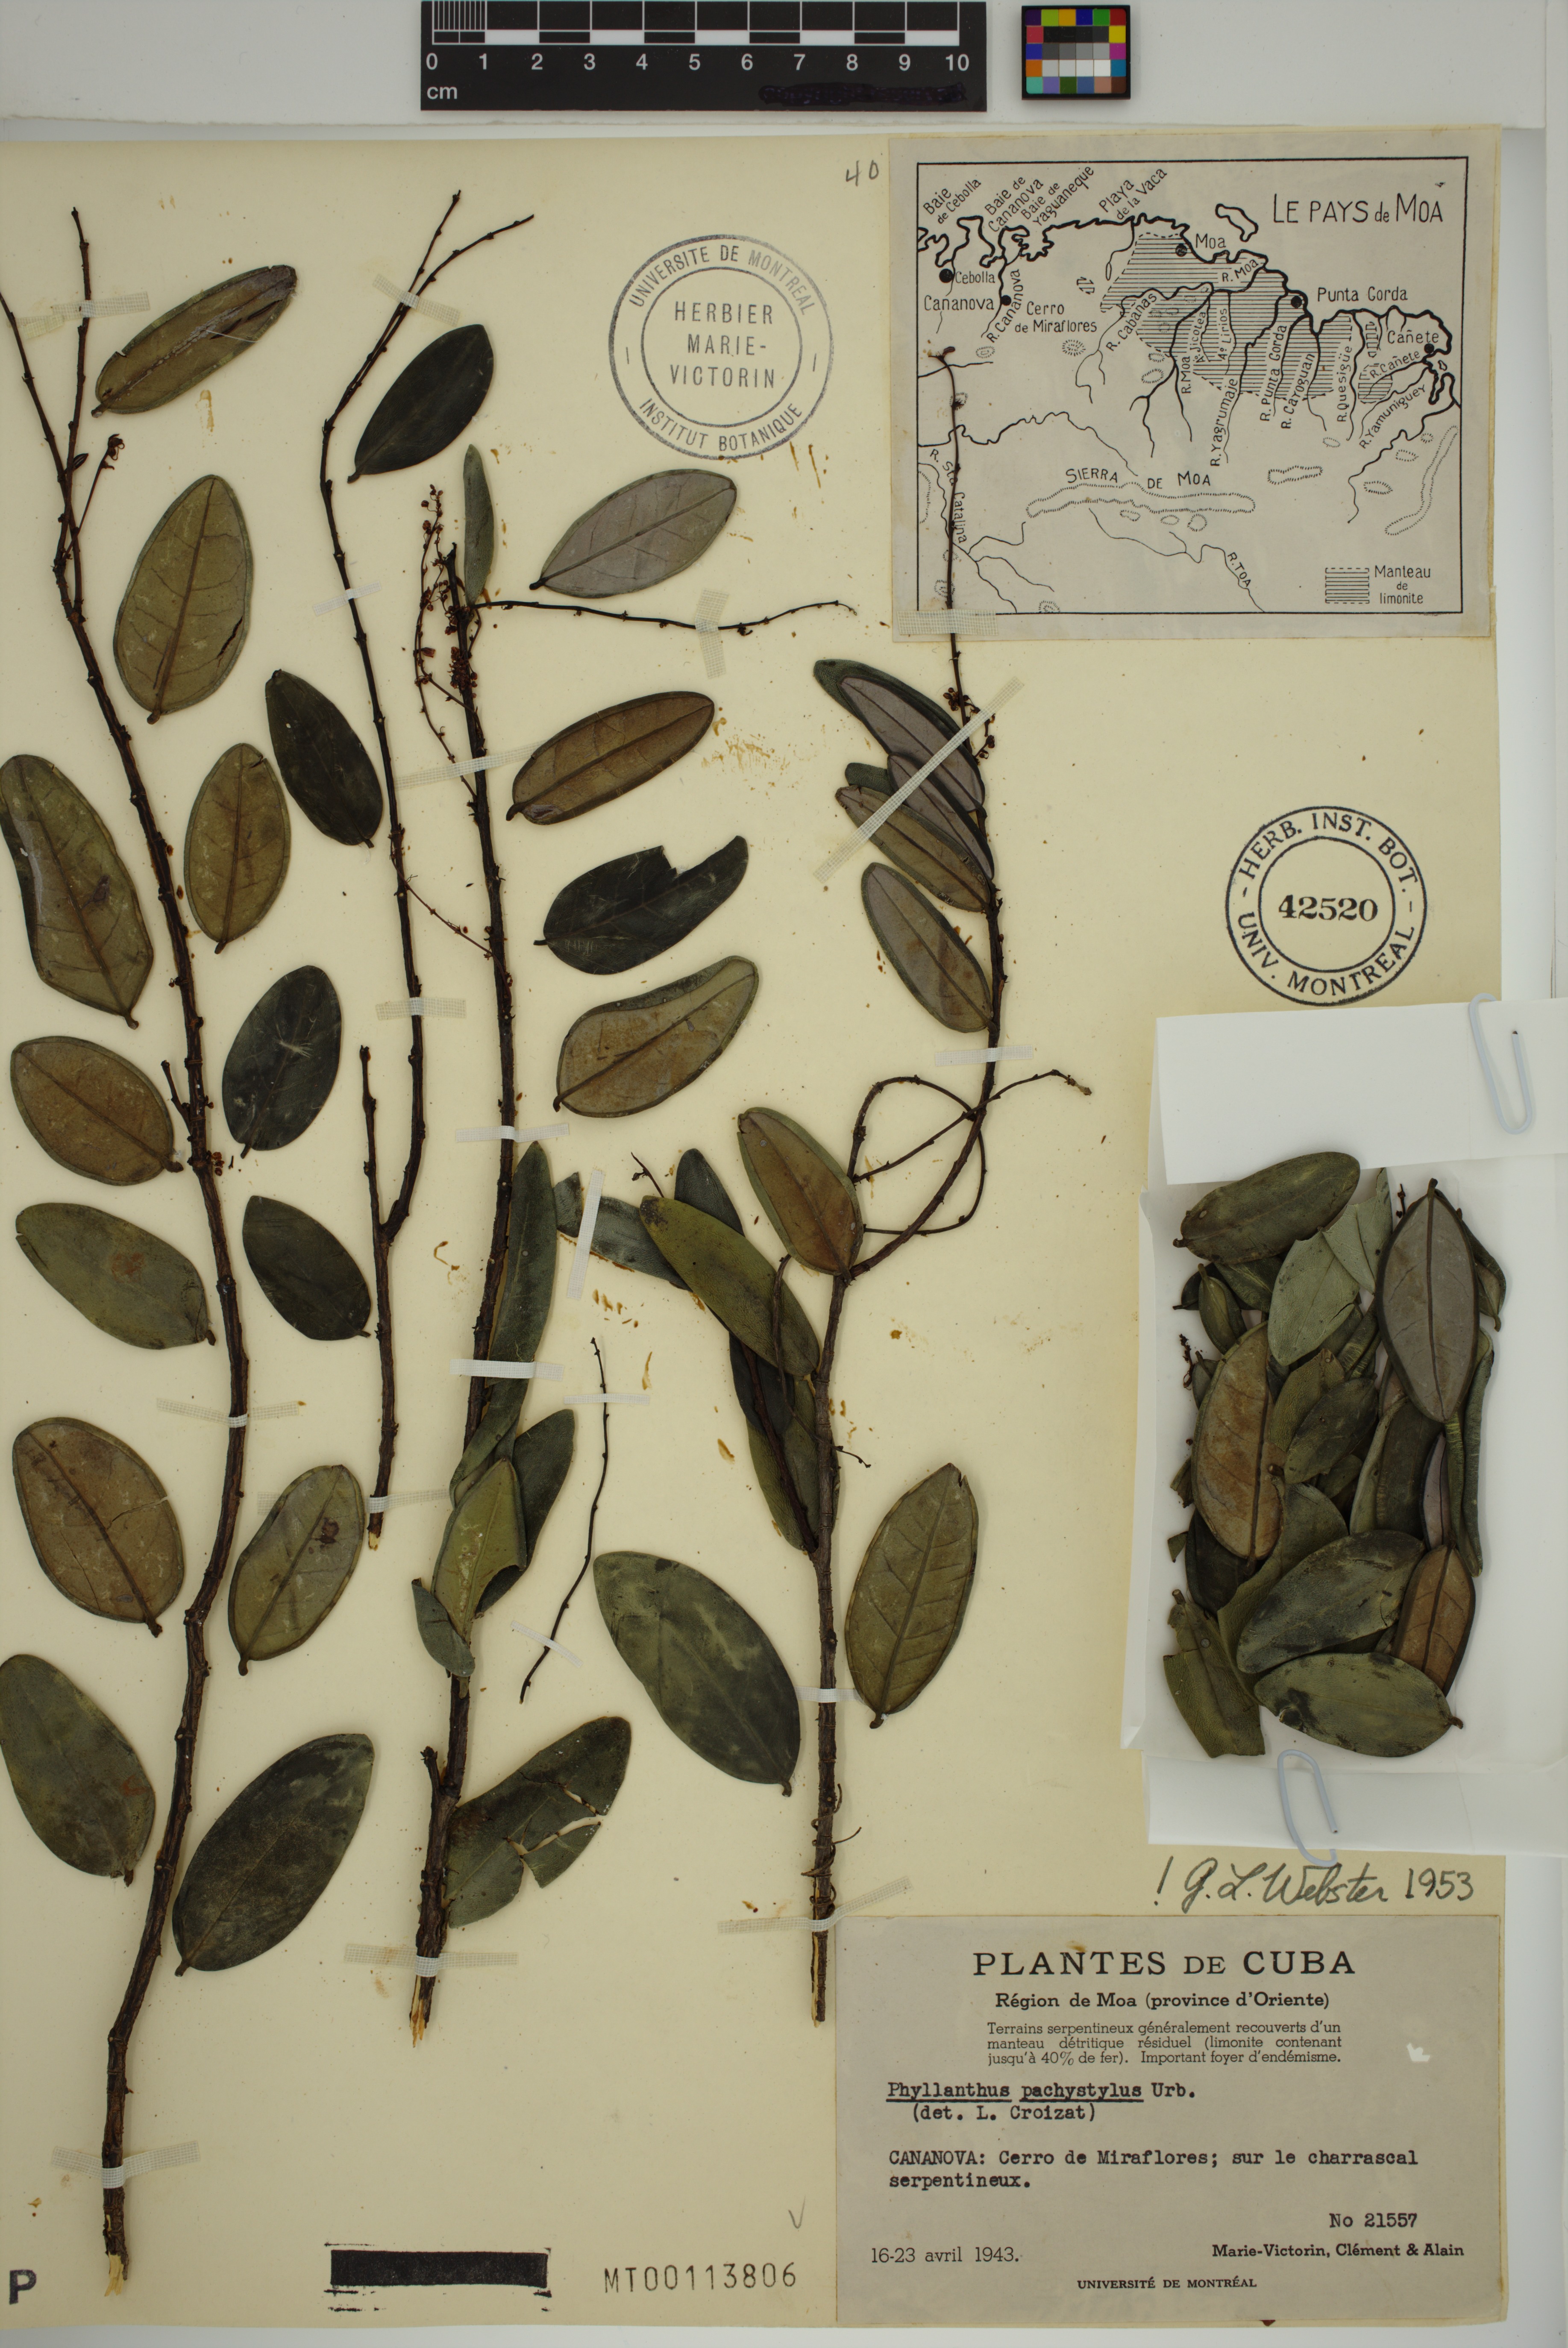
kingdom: Plantae
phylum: Tracheophyta
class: Magnoliopsida
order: Malpighiales
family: Phyllanthaceae
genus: Phyllanthus
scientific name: Phyllanthus pachystylus
